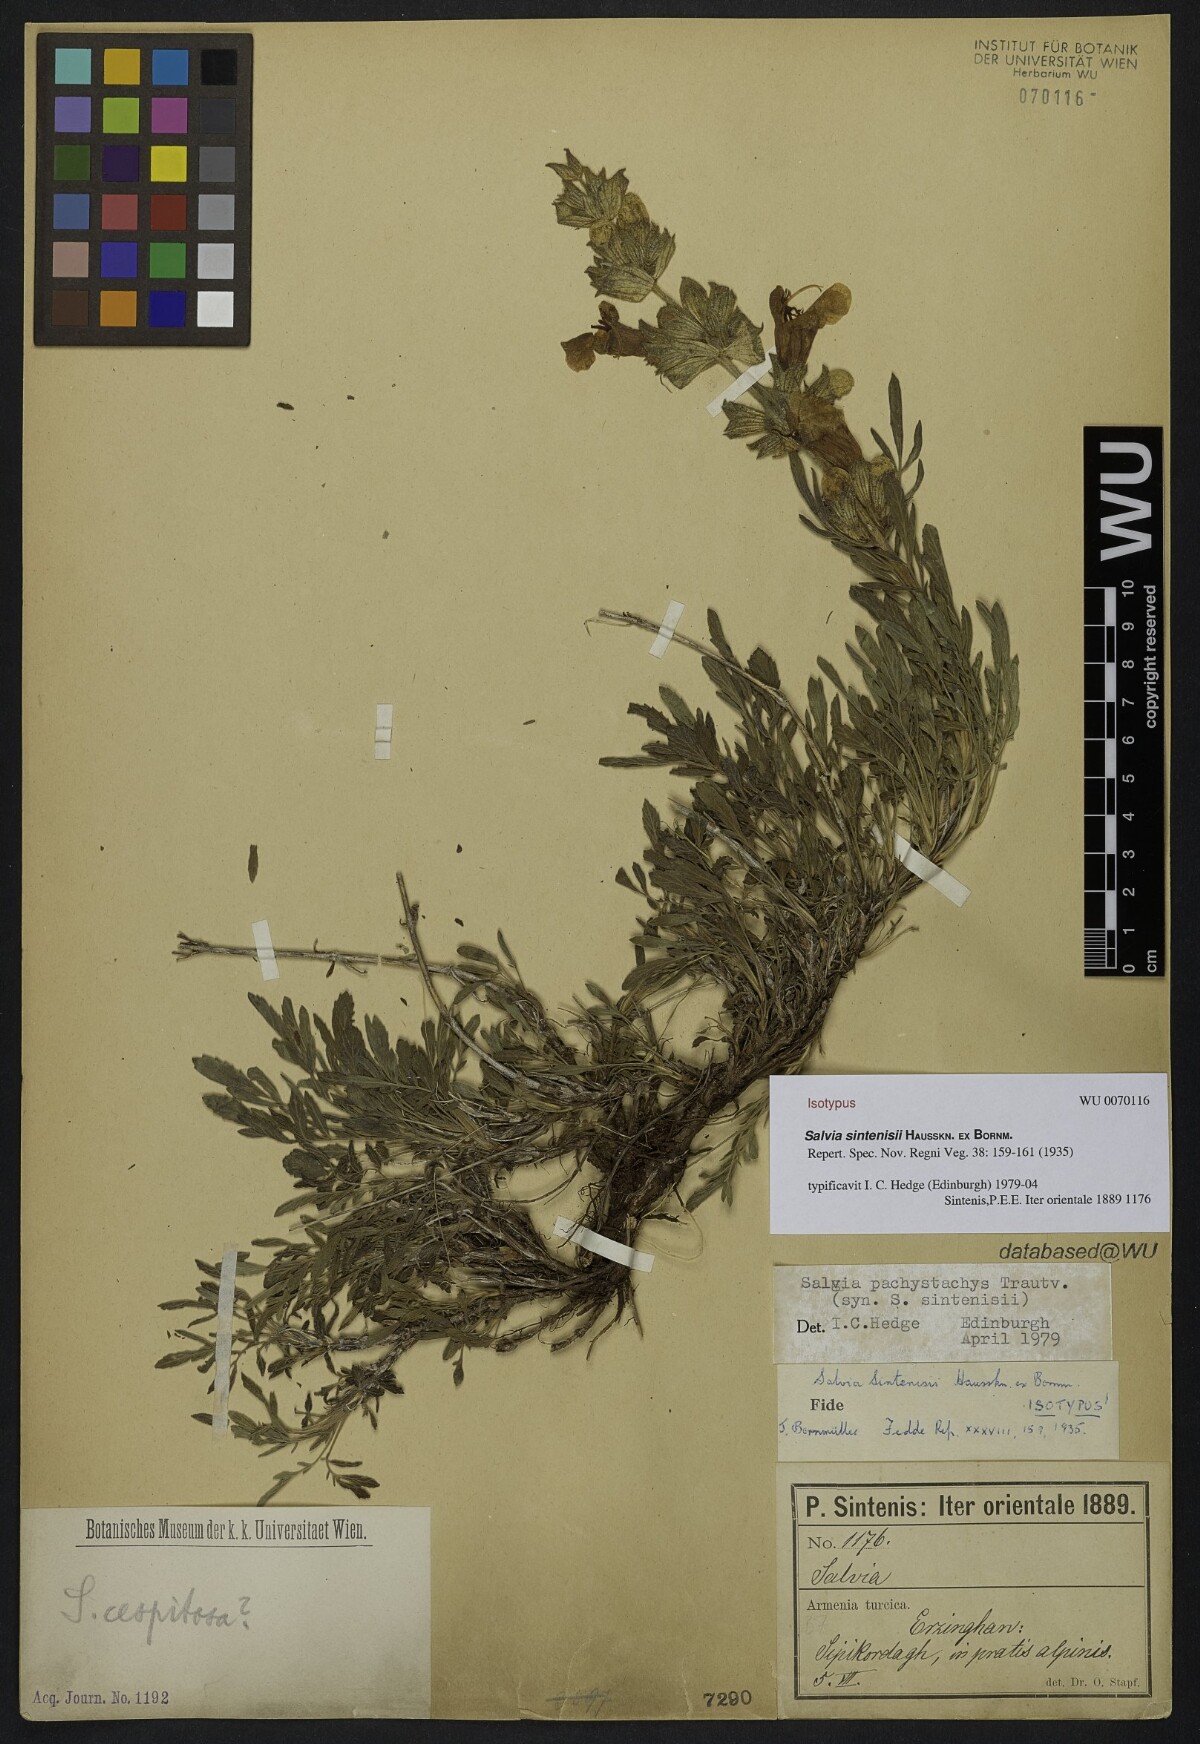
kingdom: Plantae
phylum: Tracheophyta
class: Magnoliopsida
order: Lamiales
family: Lamiaceae
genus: Salvia
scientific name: Salvia pachystachya
